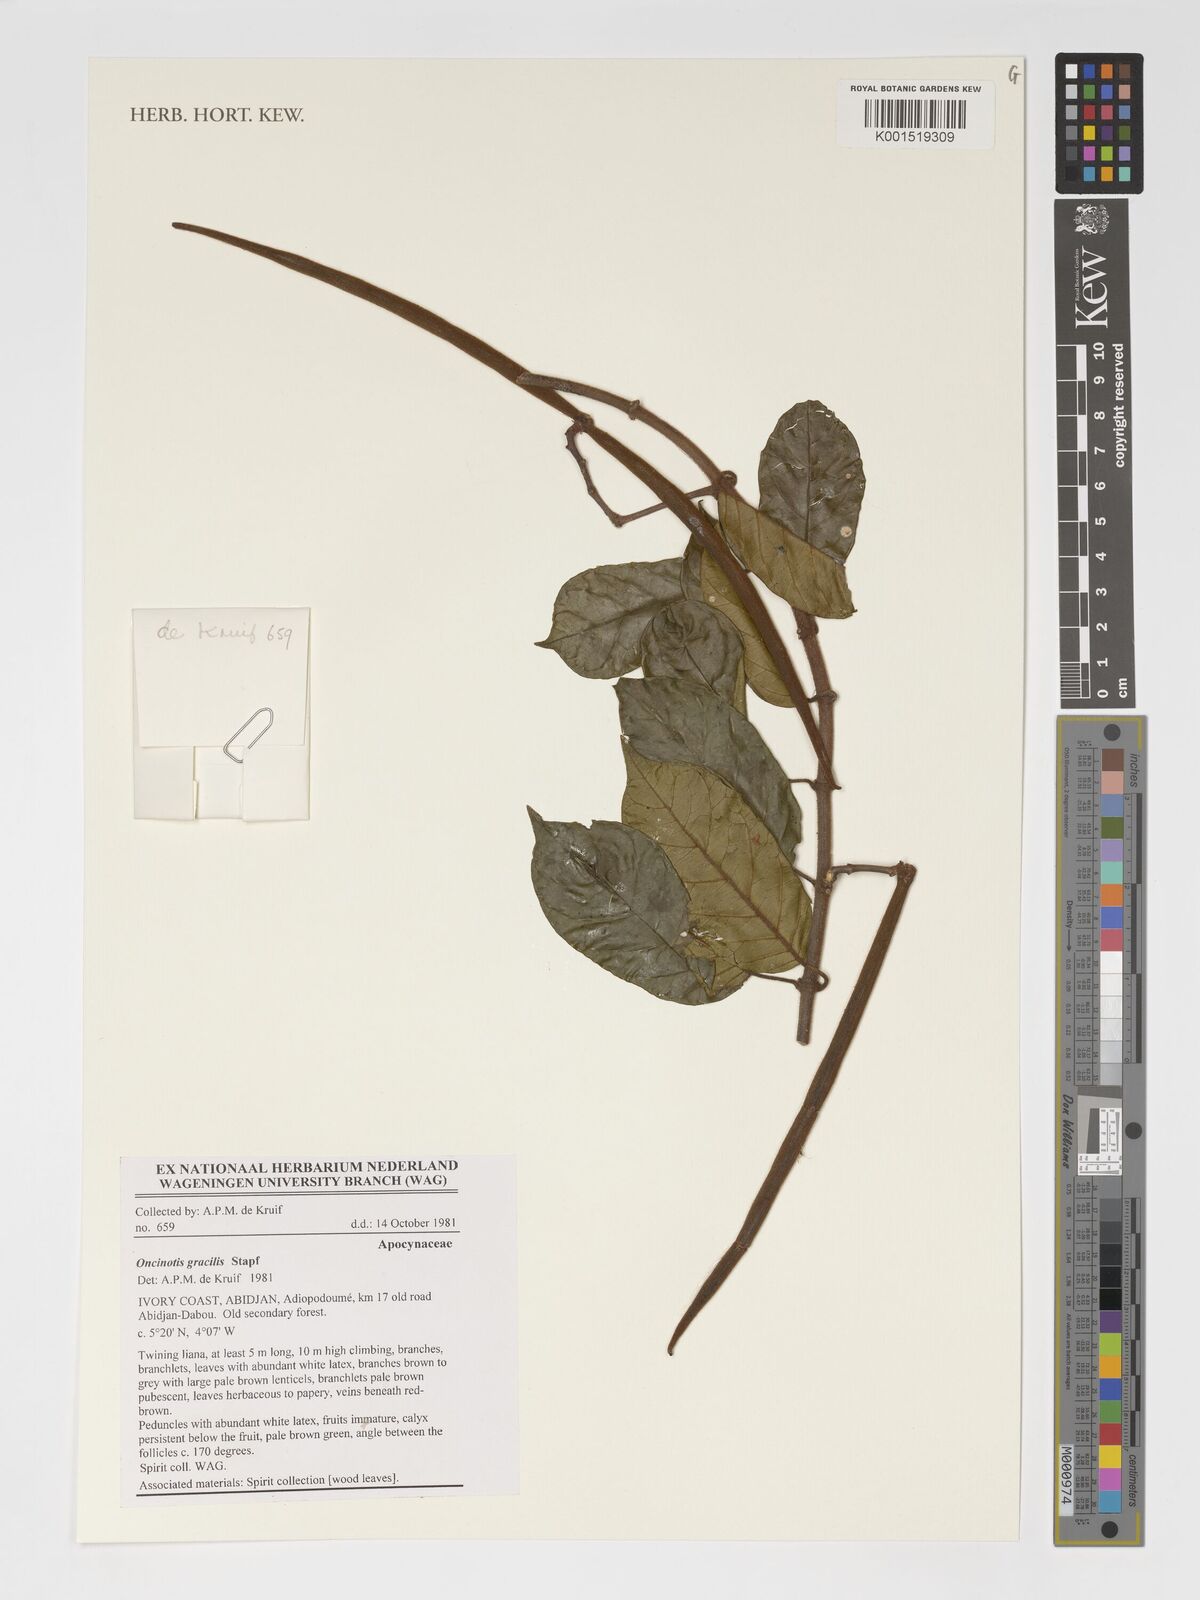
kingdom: Plantae
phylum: Tracheophyta
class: Magnoliopsida
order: Gentianales
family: Apocynaceae
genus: Oncinotis
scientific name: Oncinotis gracilis
